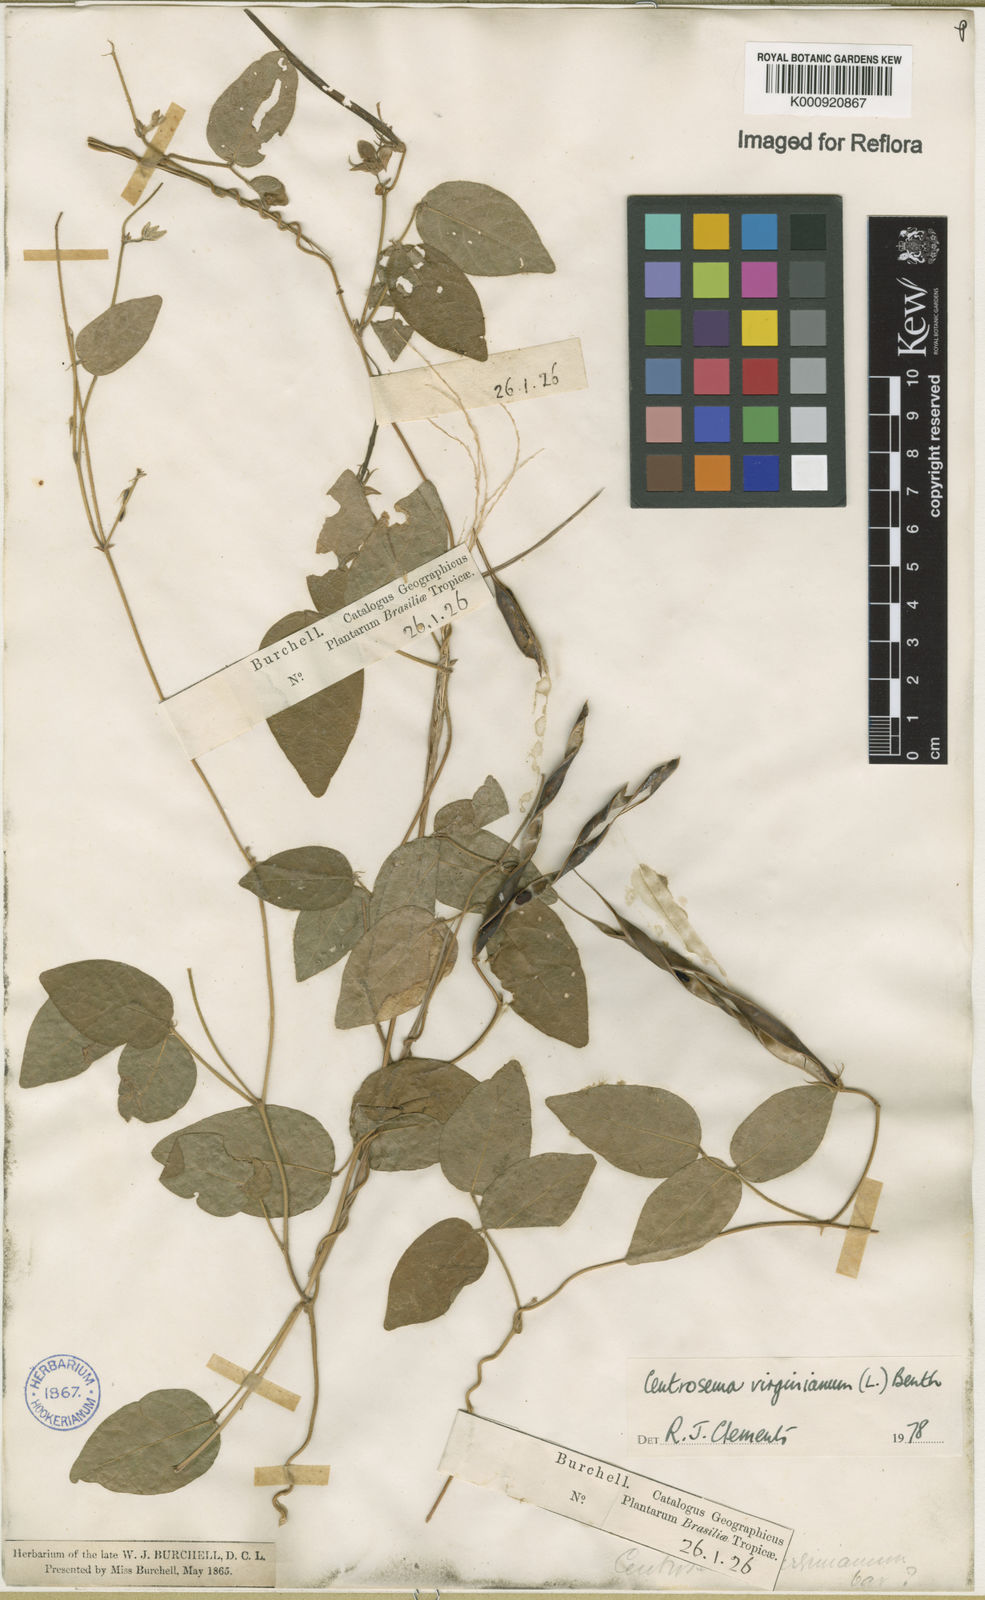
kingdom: Plantae
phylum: Tracheophyta
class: Magnoliopsida
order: Fabales
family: Fabaceae
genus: Centrosema
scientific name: Centrosema virginianum
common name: Butterfly-pea
